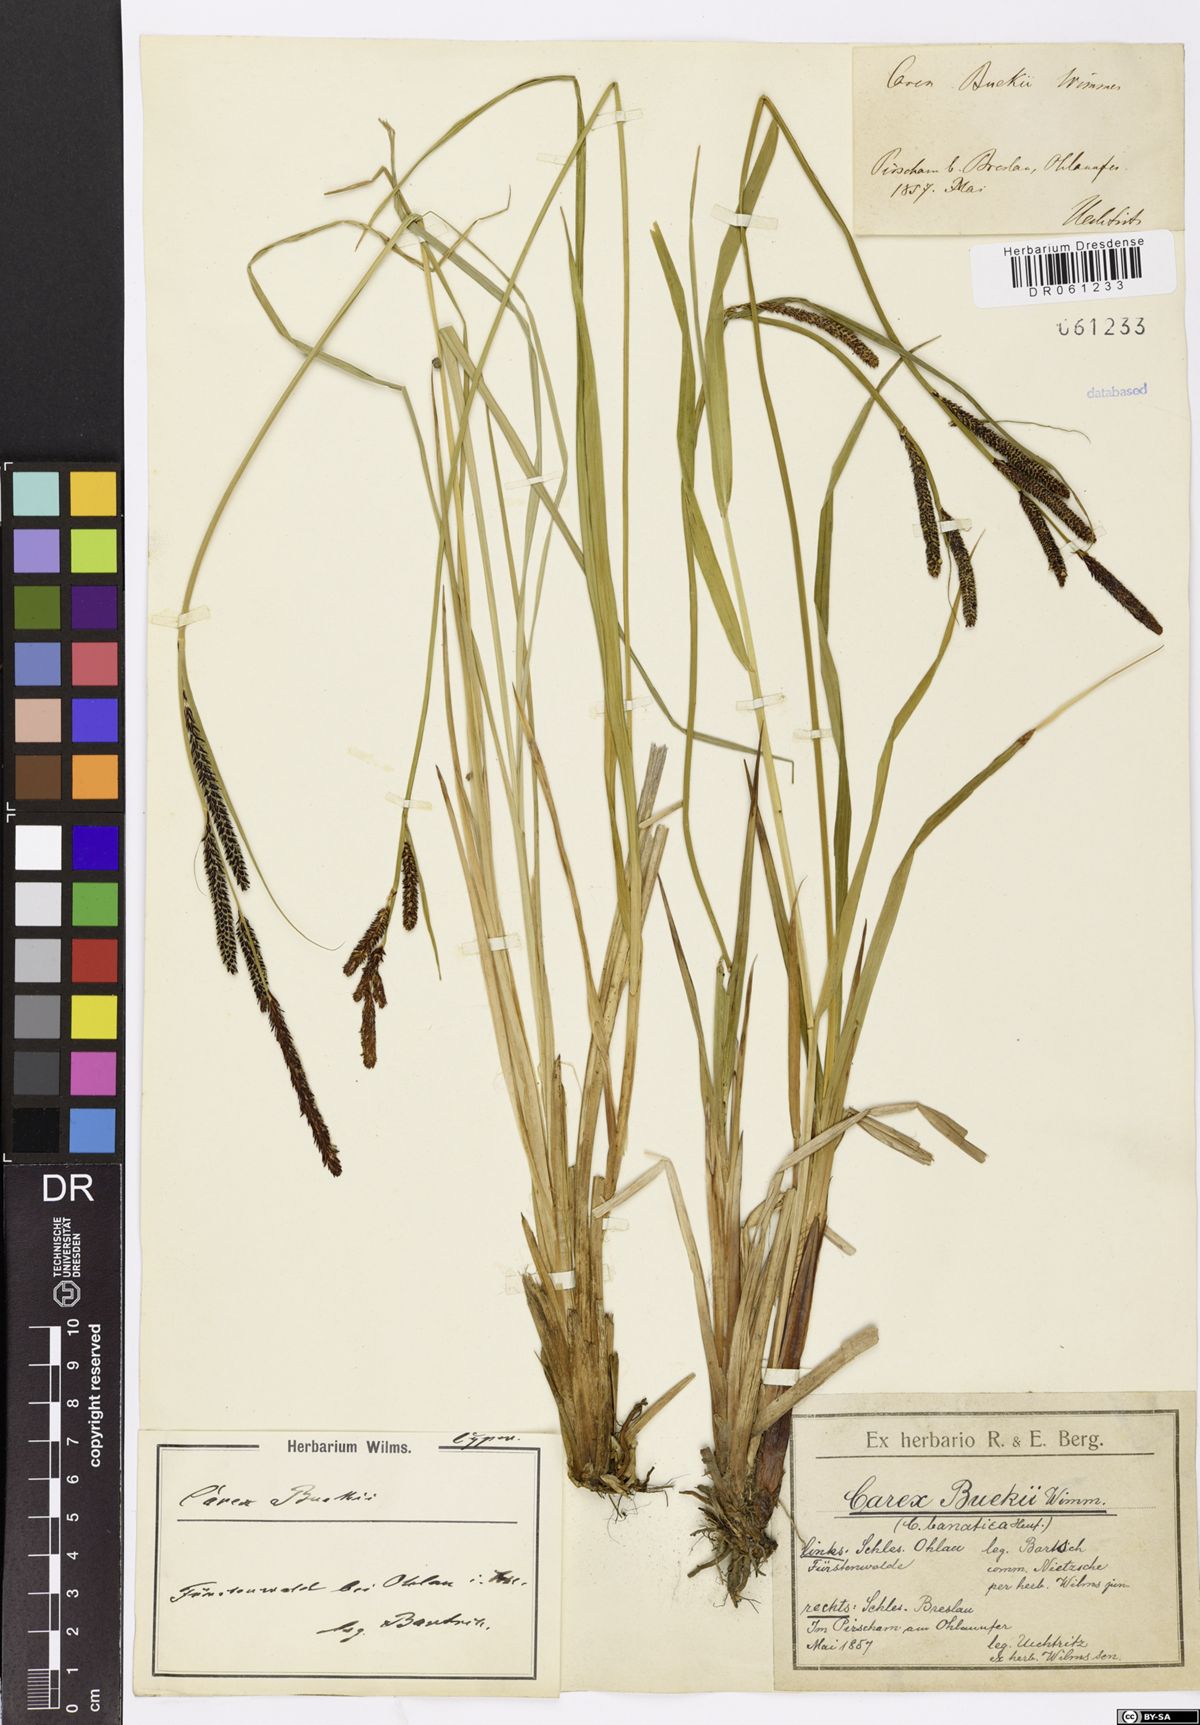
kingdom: Plantae
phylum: Tracheophyta
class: Liliopsida
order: Poales
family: Cyperaceae
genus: Carex
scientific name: Carex buekii
